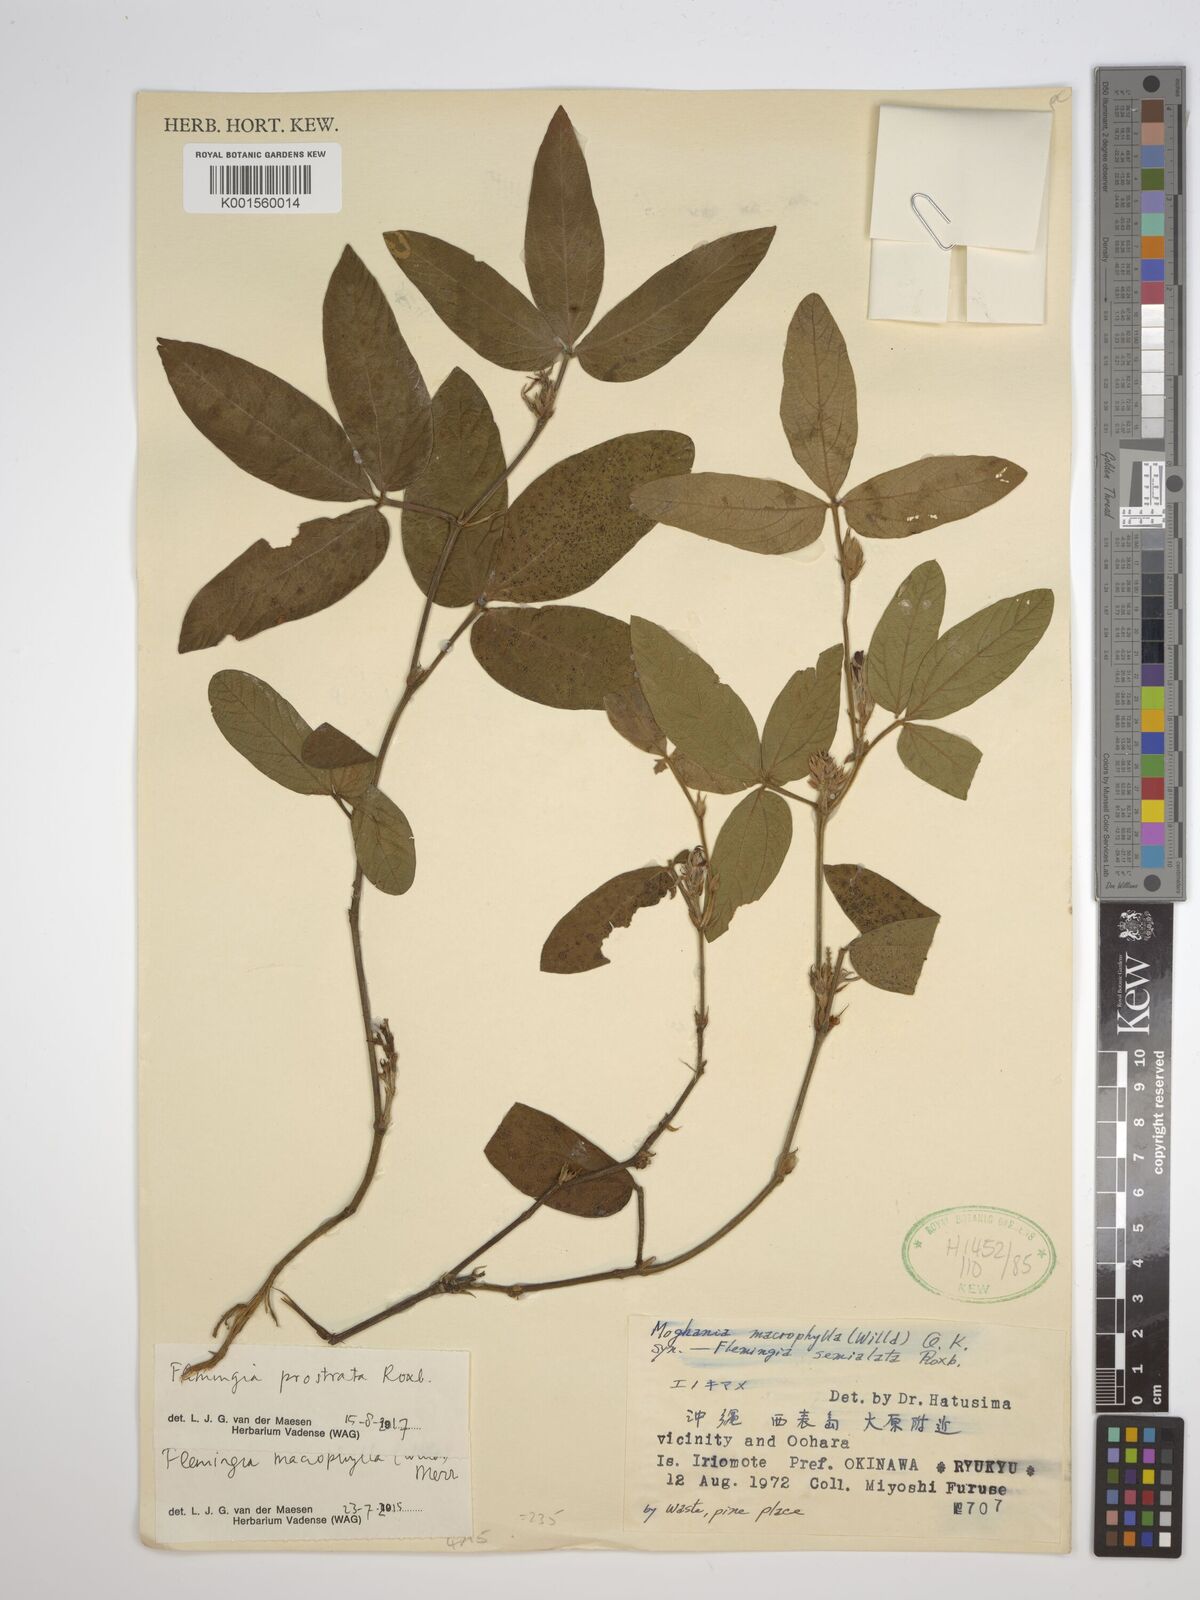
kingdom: Plantae
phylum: Tracheophyta
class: Magnoliopsida
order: Fabales
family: Fabaceae
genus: Flemingia
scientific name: Flemingia prostrata
